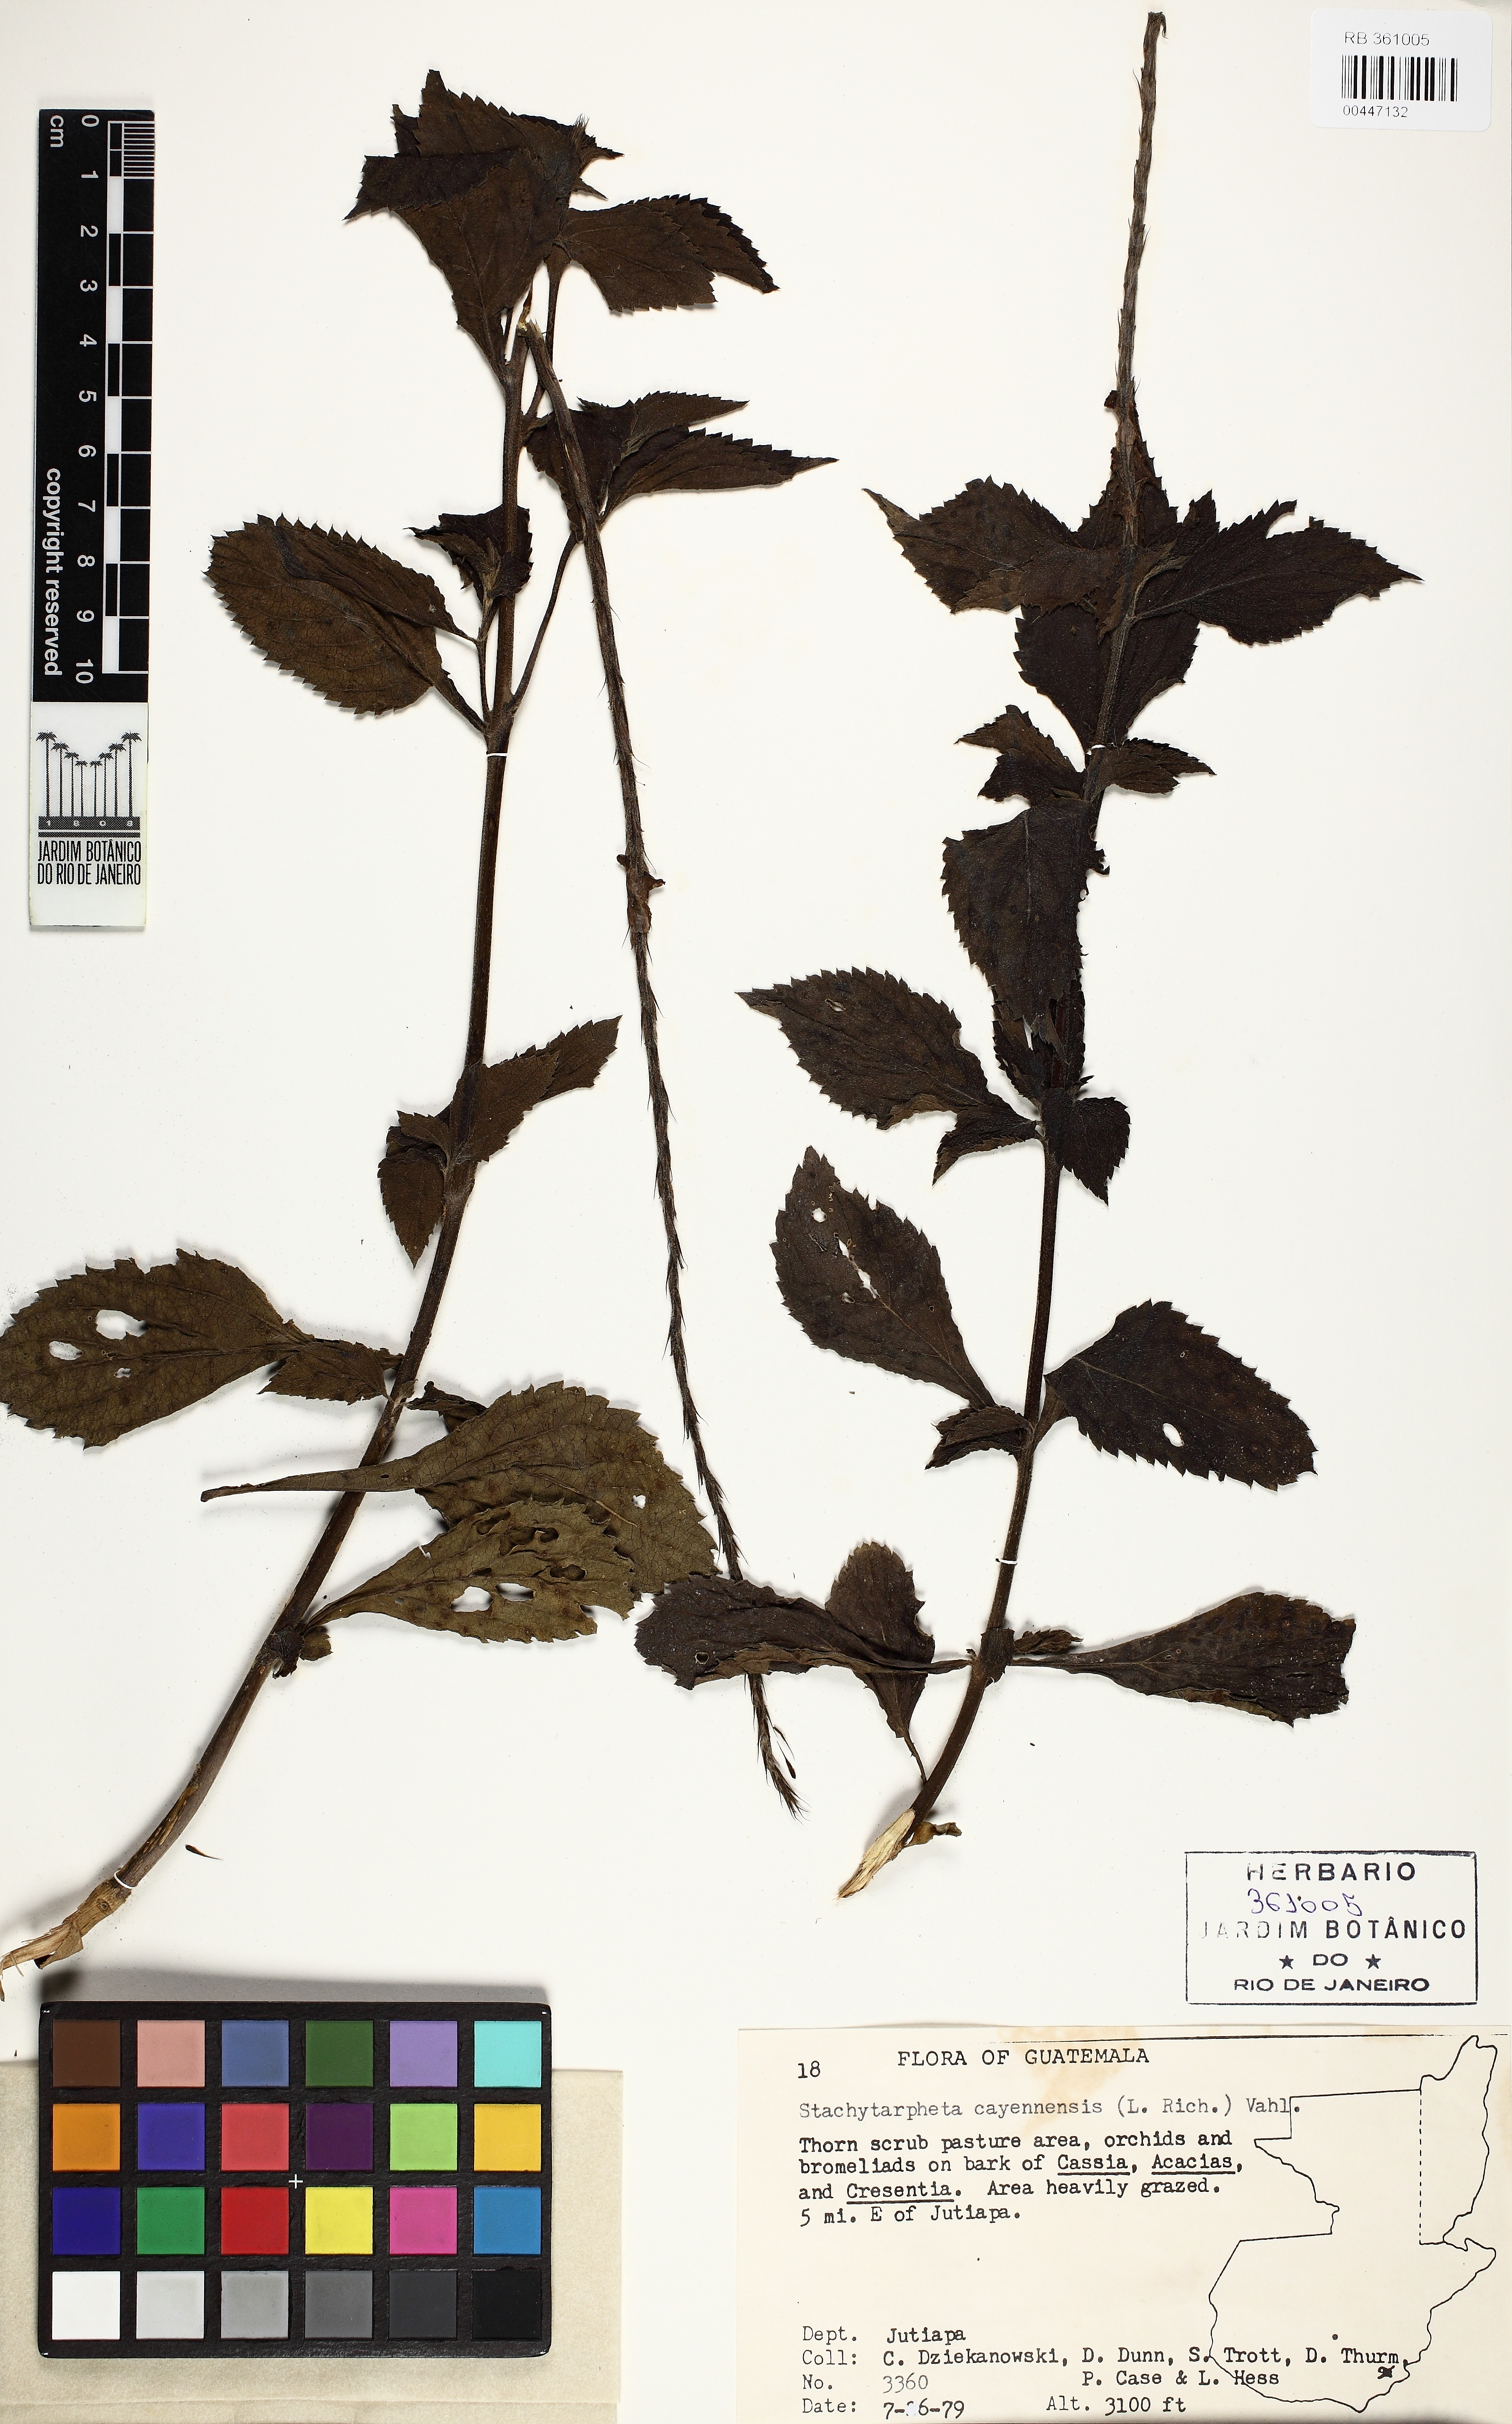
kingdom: Plantae
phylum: Tracheophyta
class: Magnoliopsida
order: Lamiales
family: Verbenaceae
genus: Stachytarpheta
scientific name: Stachytarpheta cayennensis
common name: Cayenne porterweed
